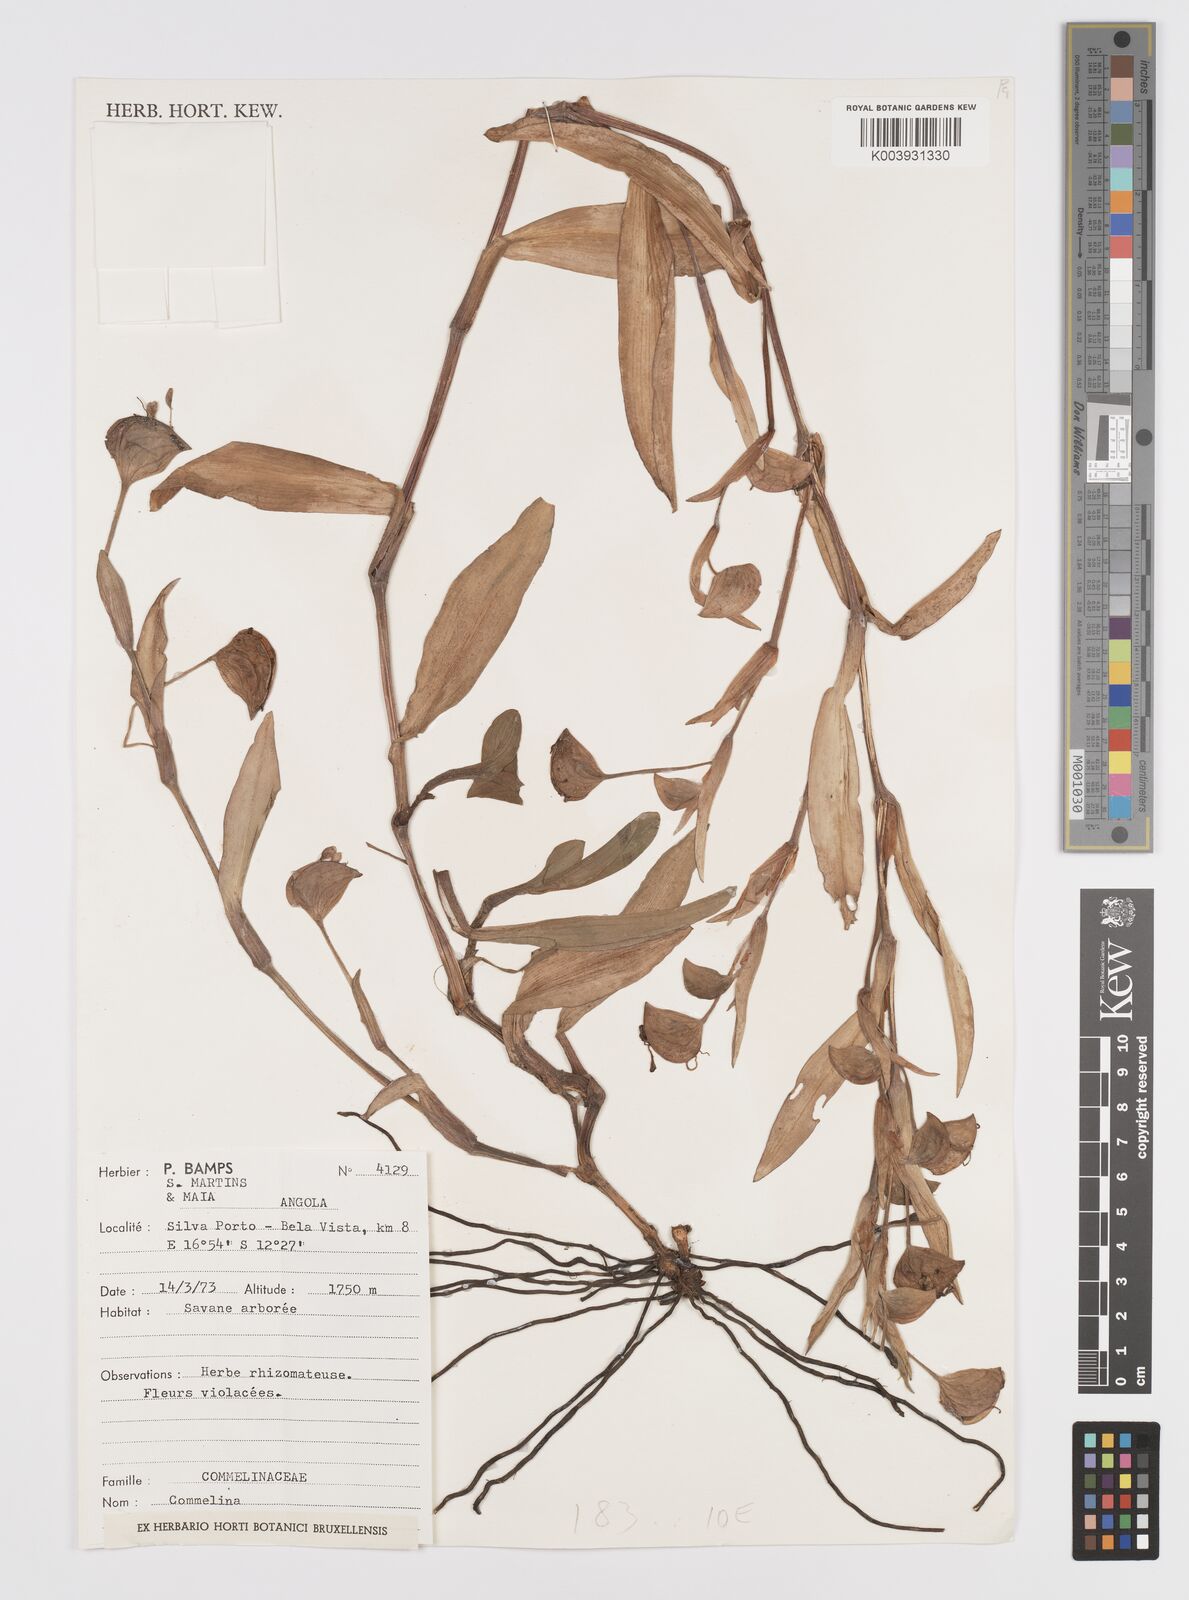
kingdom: Plantae
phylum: Tracheophyta
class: Liliopsida
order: Commelinales
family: Commelinaceae
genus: Commelina
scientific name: Commelina
